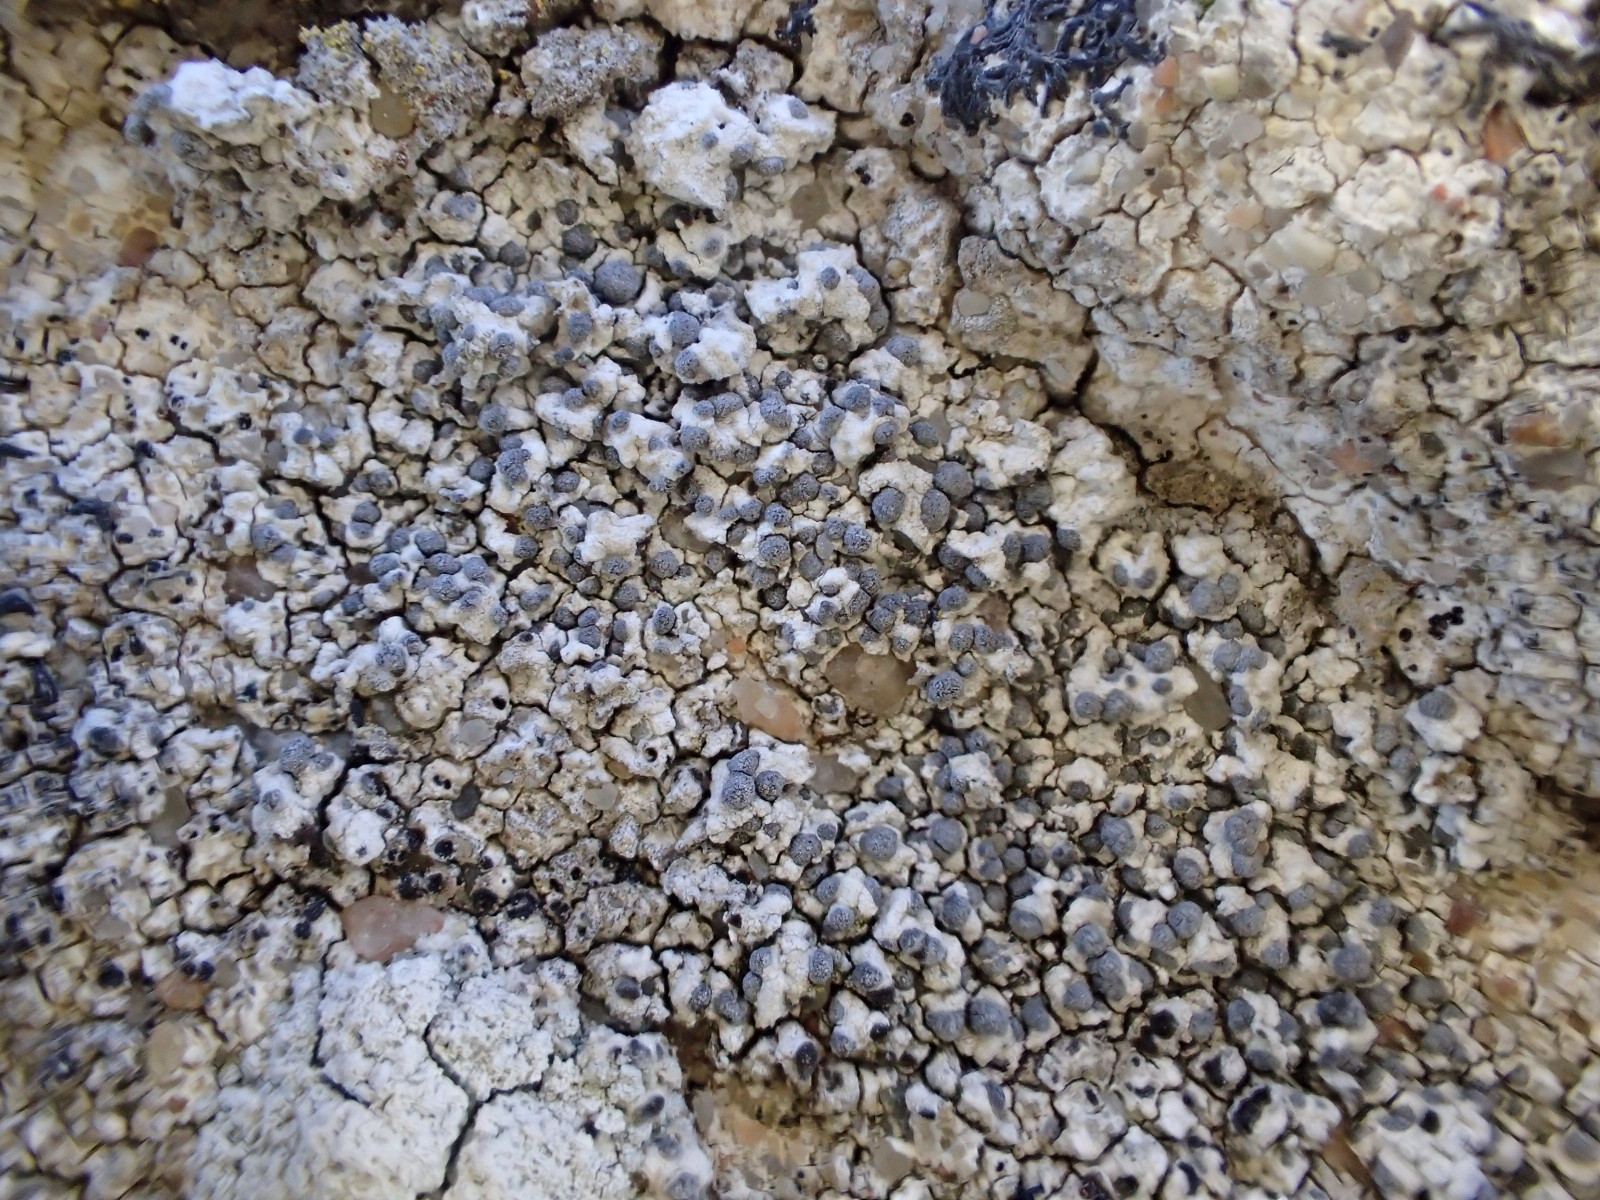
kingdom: Fungi
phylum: Ascomycota
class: Lecanoromycetes
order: Caliciales
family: Caliciaceae
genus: Diplotomma
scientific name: Diplotomma alboatrum
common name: sorthvid sortskivelav
